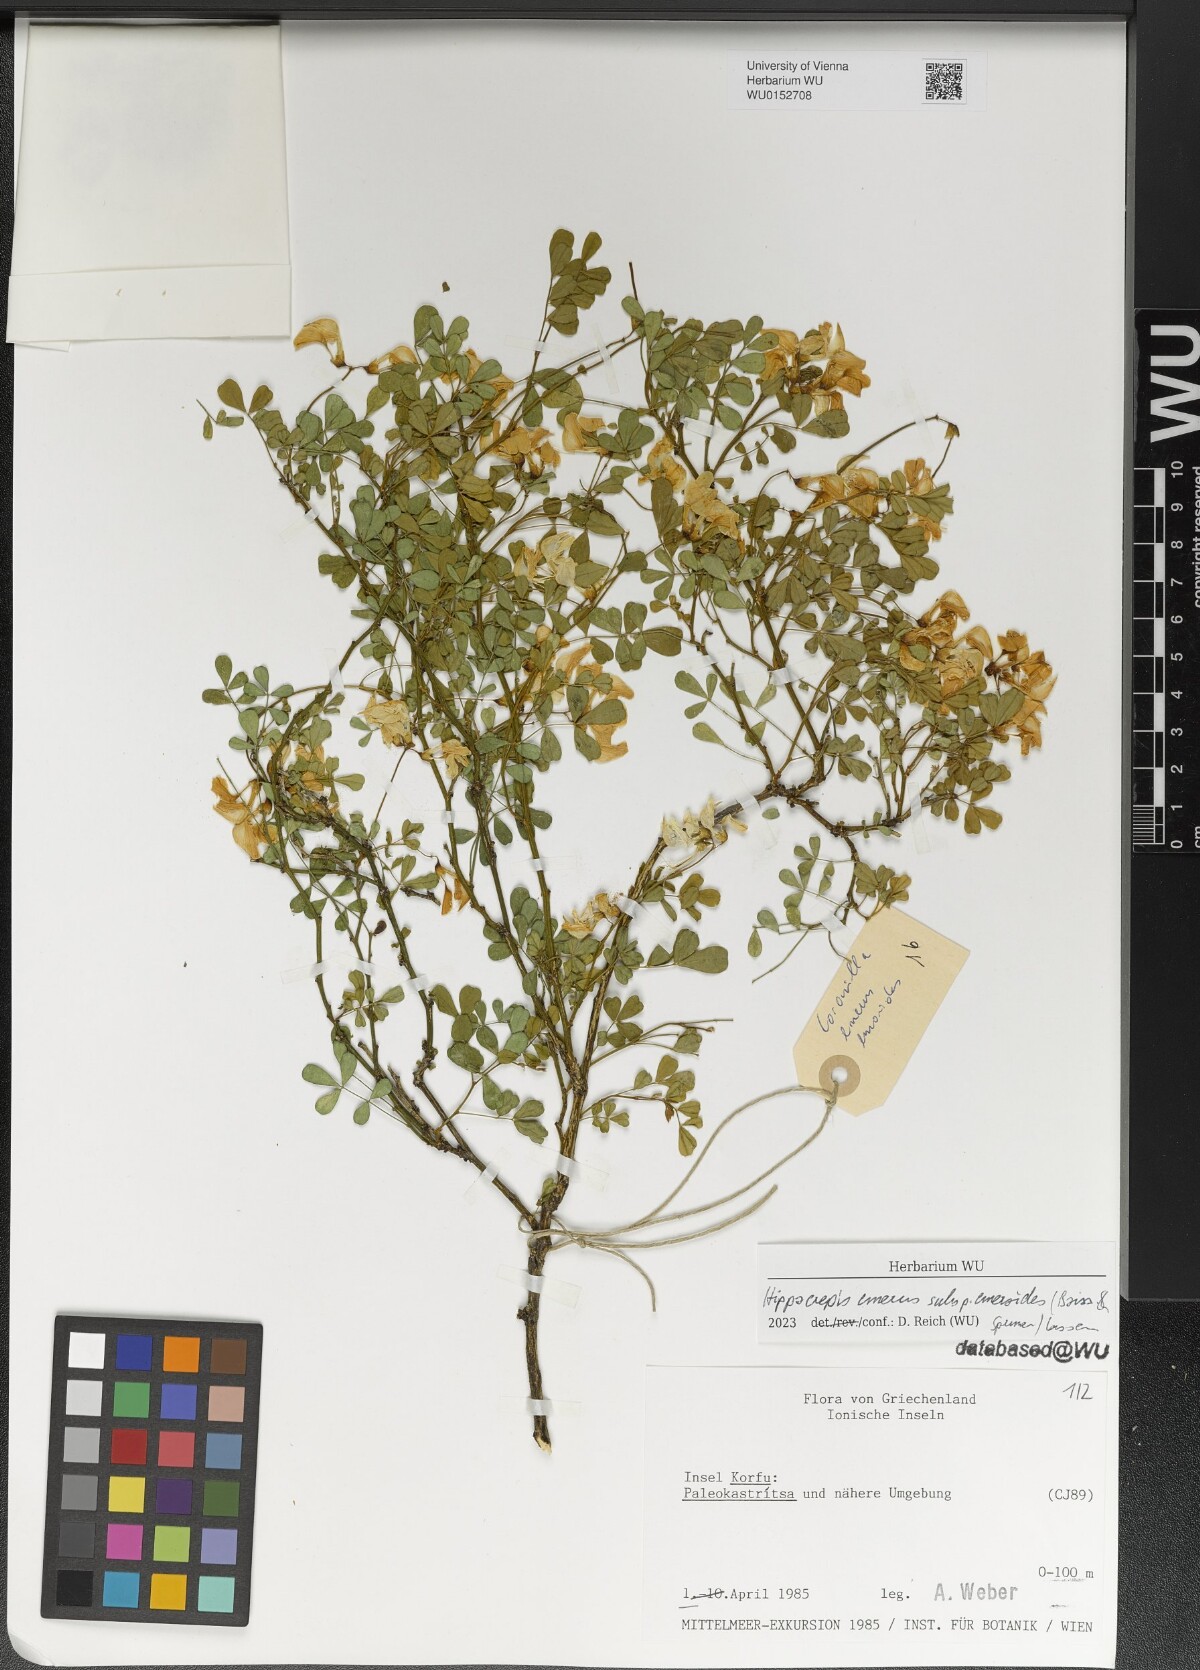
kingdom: Plantae
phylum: Tracheophyta
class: Magnoliopsida
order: Fabales
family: Fabaceae
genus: Hippocrepis
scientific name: Hippocrepis emerus
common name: Scorpion senna
